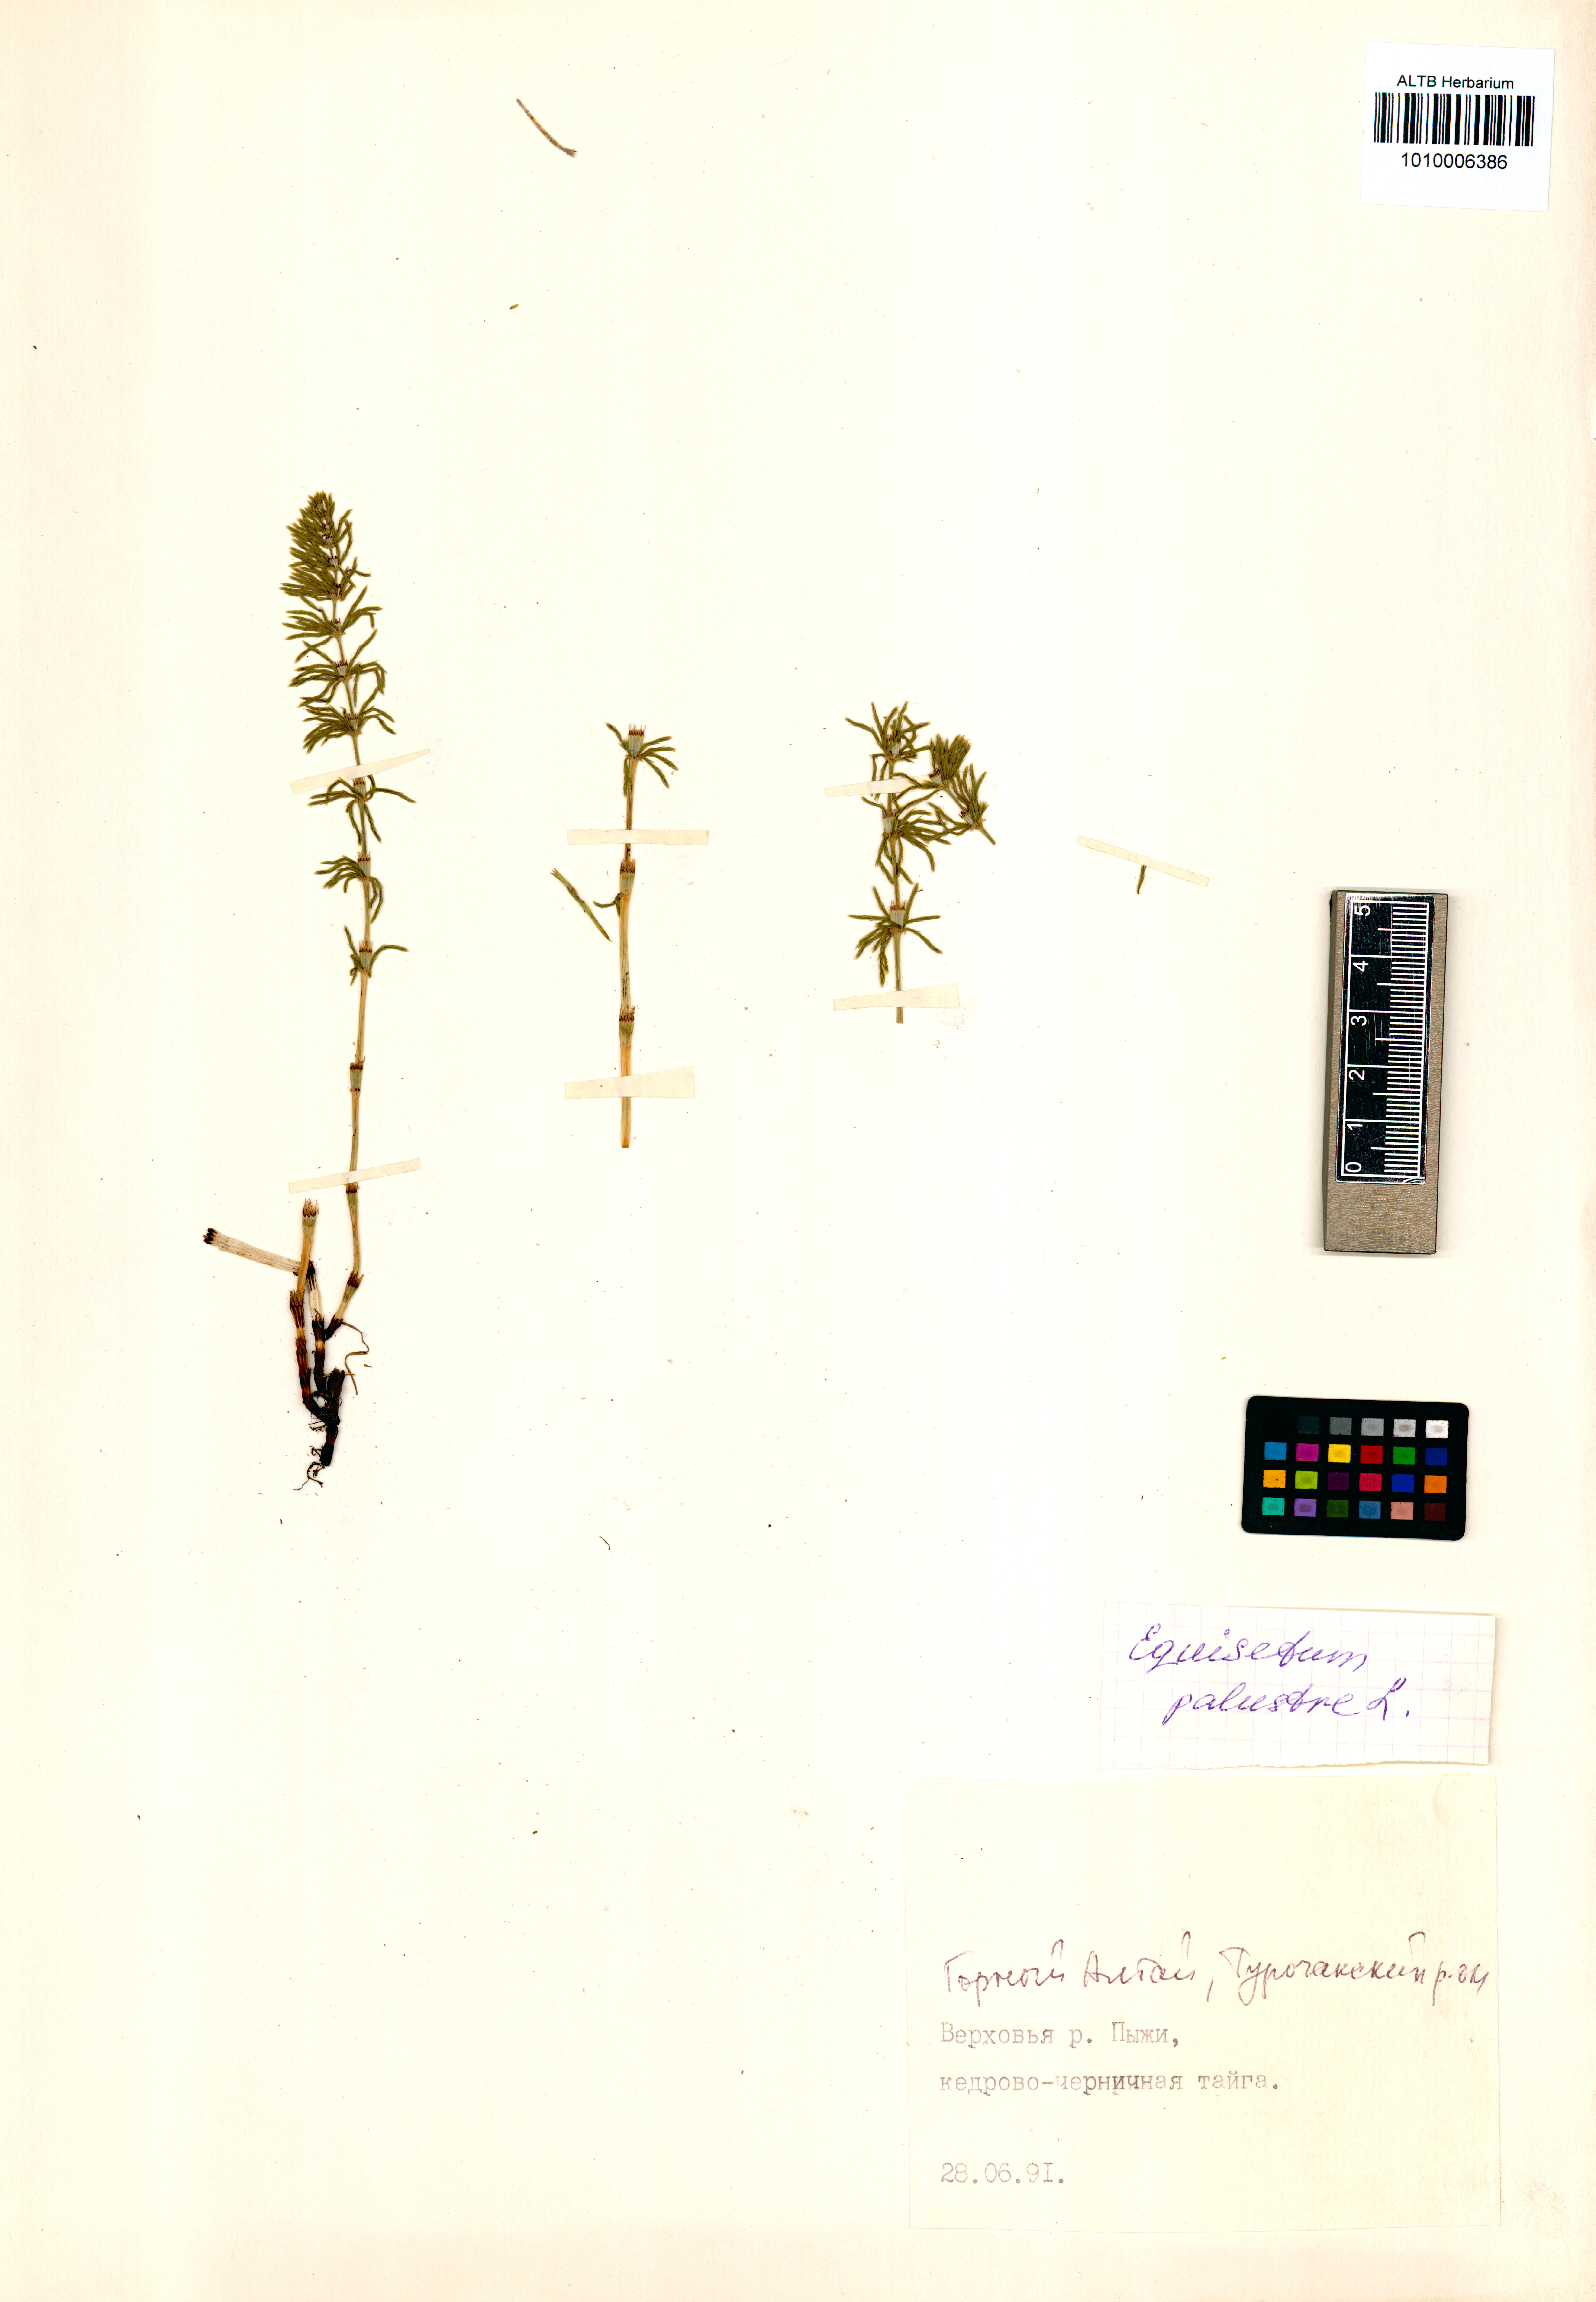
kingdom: Plantae
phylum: Tracheophyta
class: Polypodiopsida
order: Equisetales
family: Equisetaceae
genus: Equisetum
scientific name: Equisetum pratense
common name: Meadow horsetail
